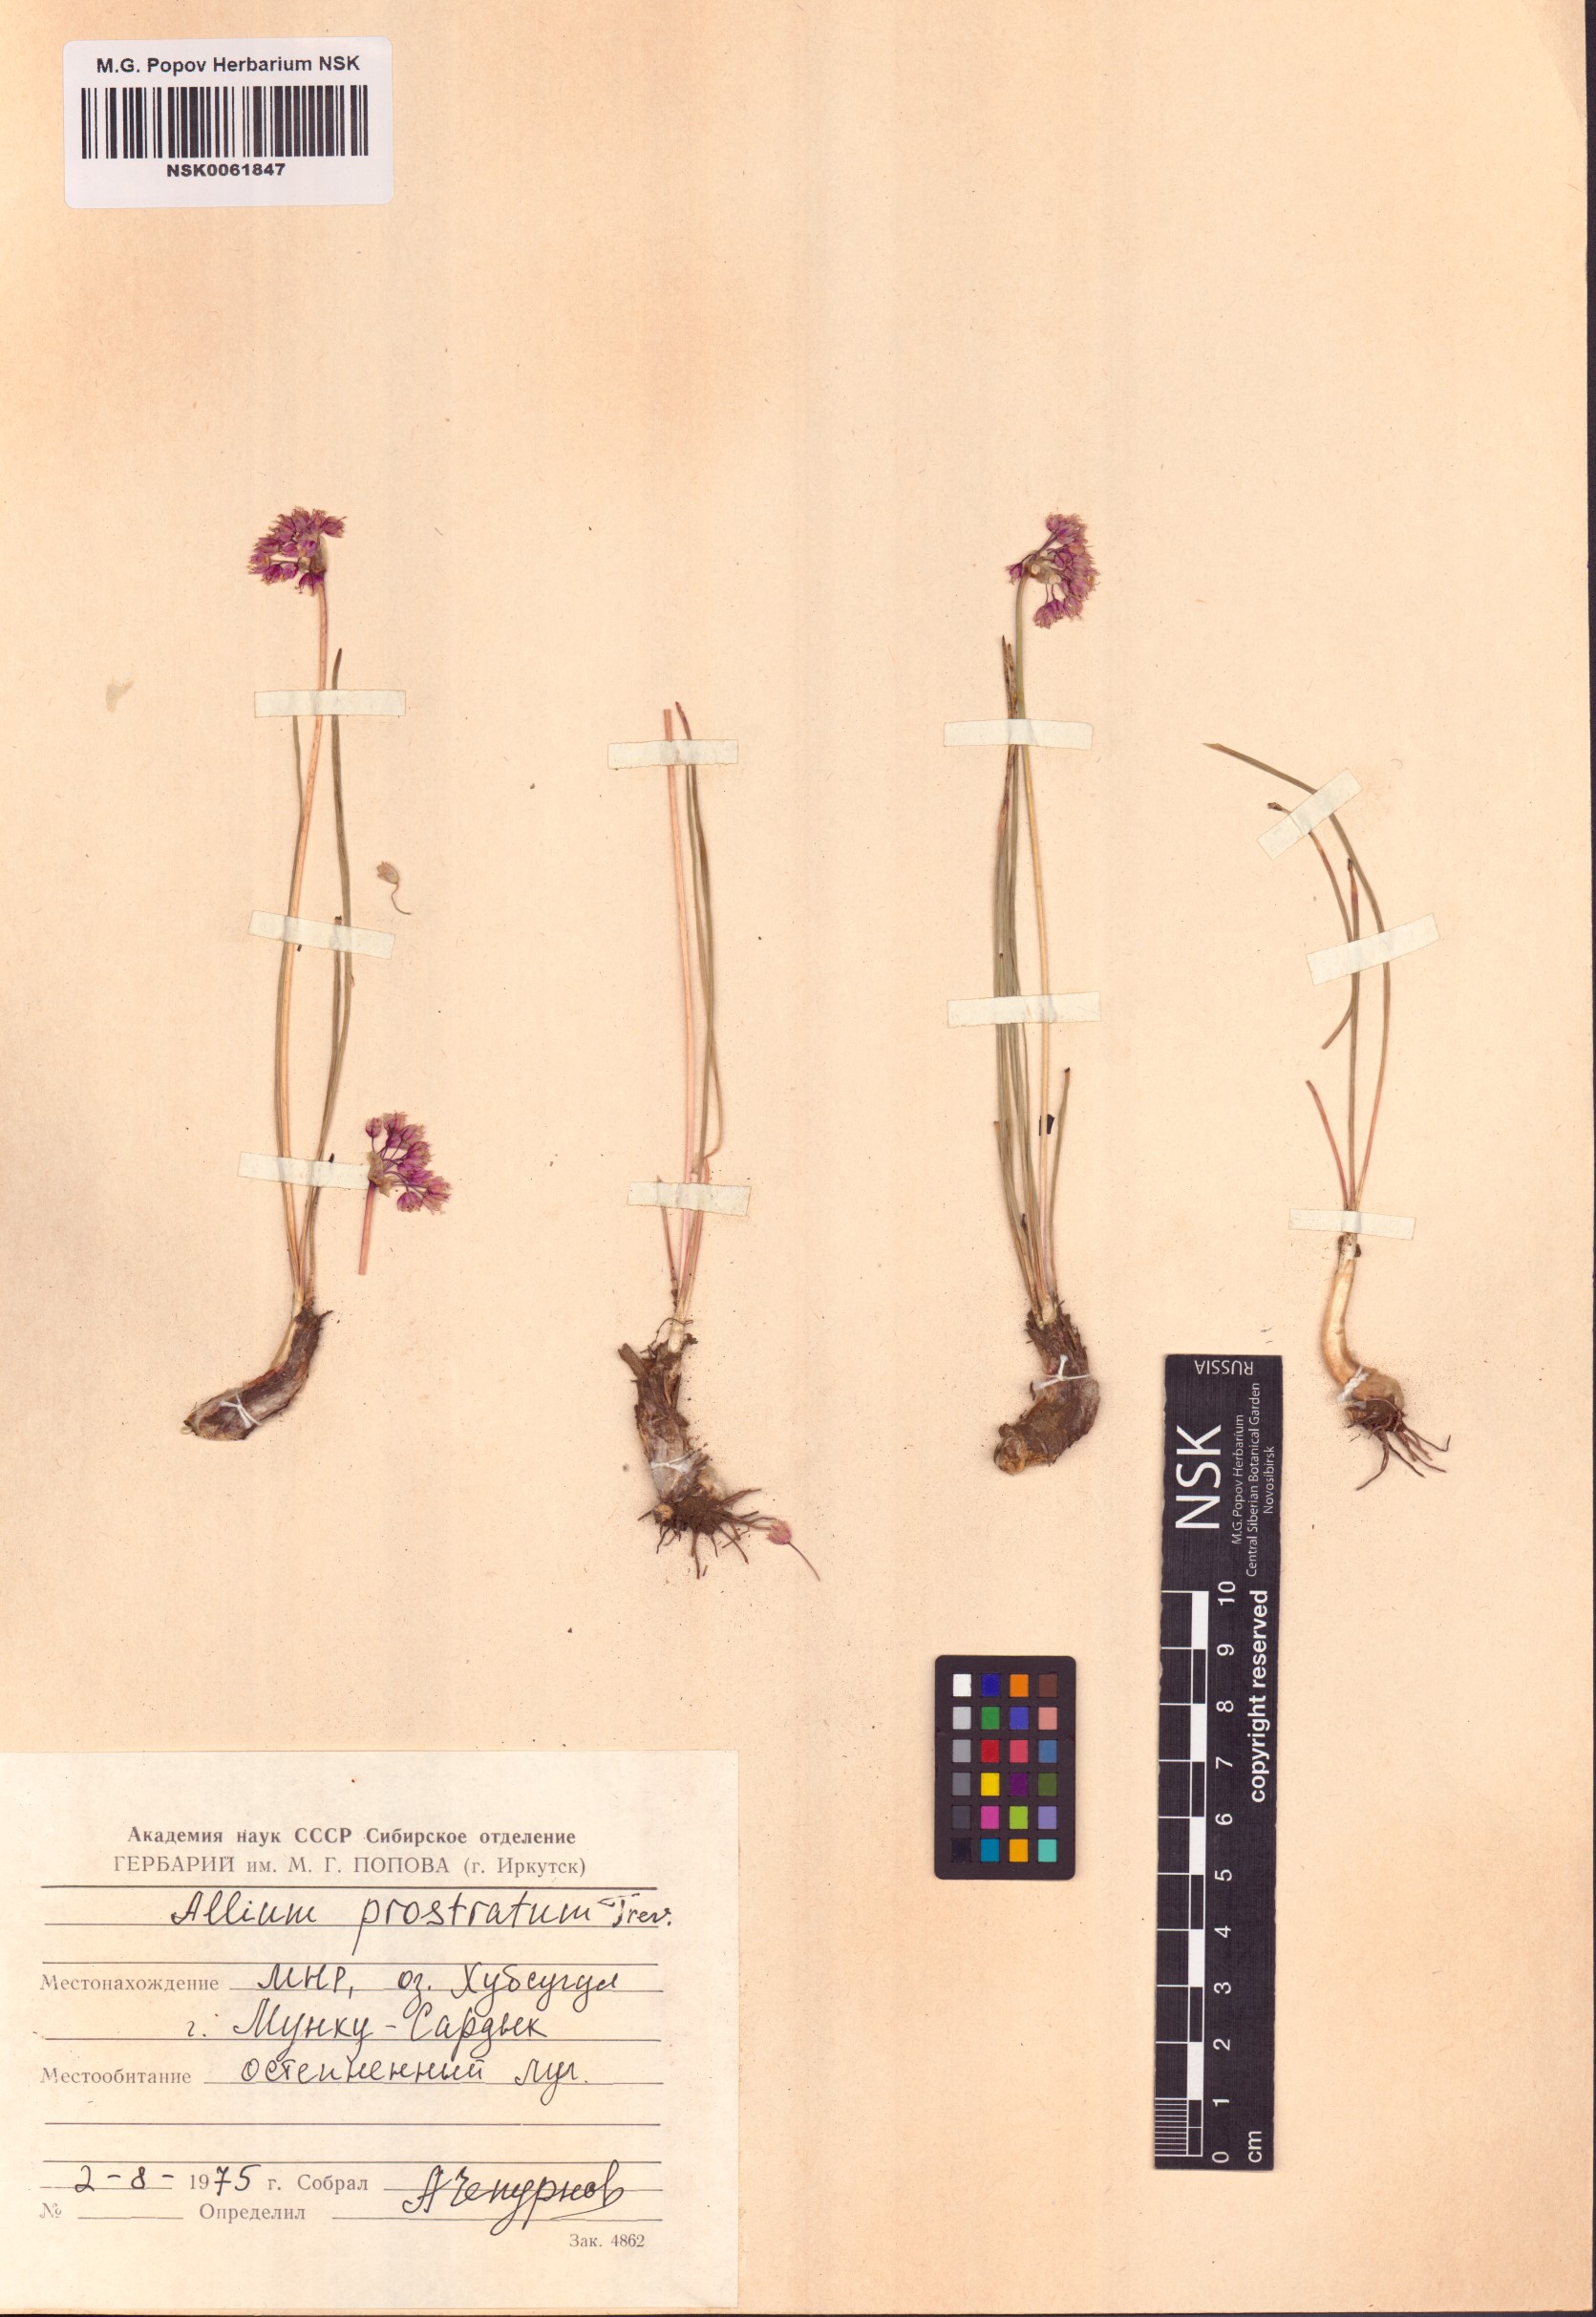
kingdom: Plantae
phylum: Tracheophyta
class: Liliopsida
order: Asparagales
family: Amaryllidaceae
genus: Allium
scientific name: Allium prostratum
